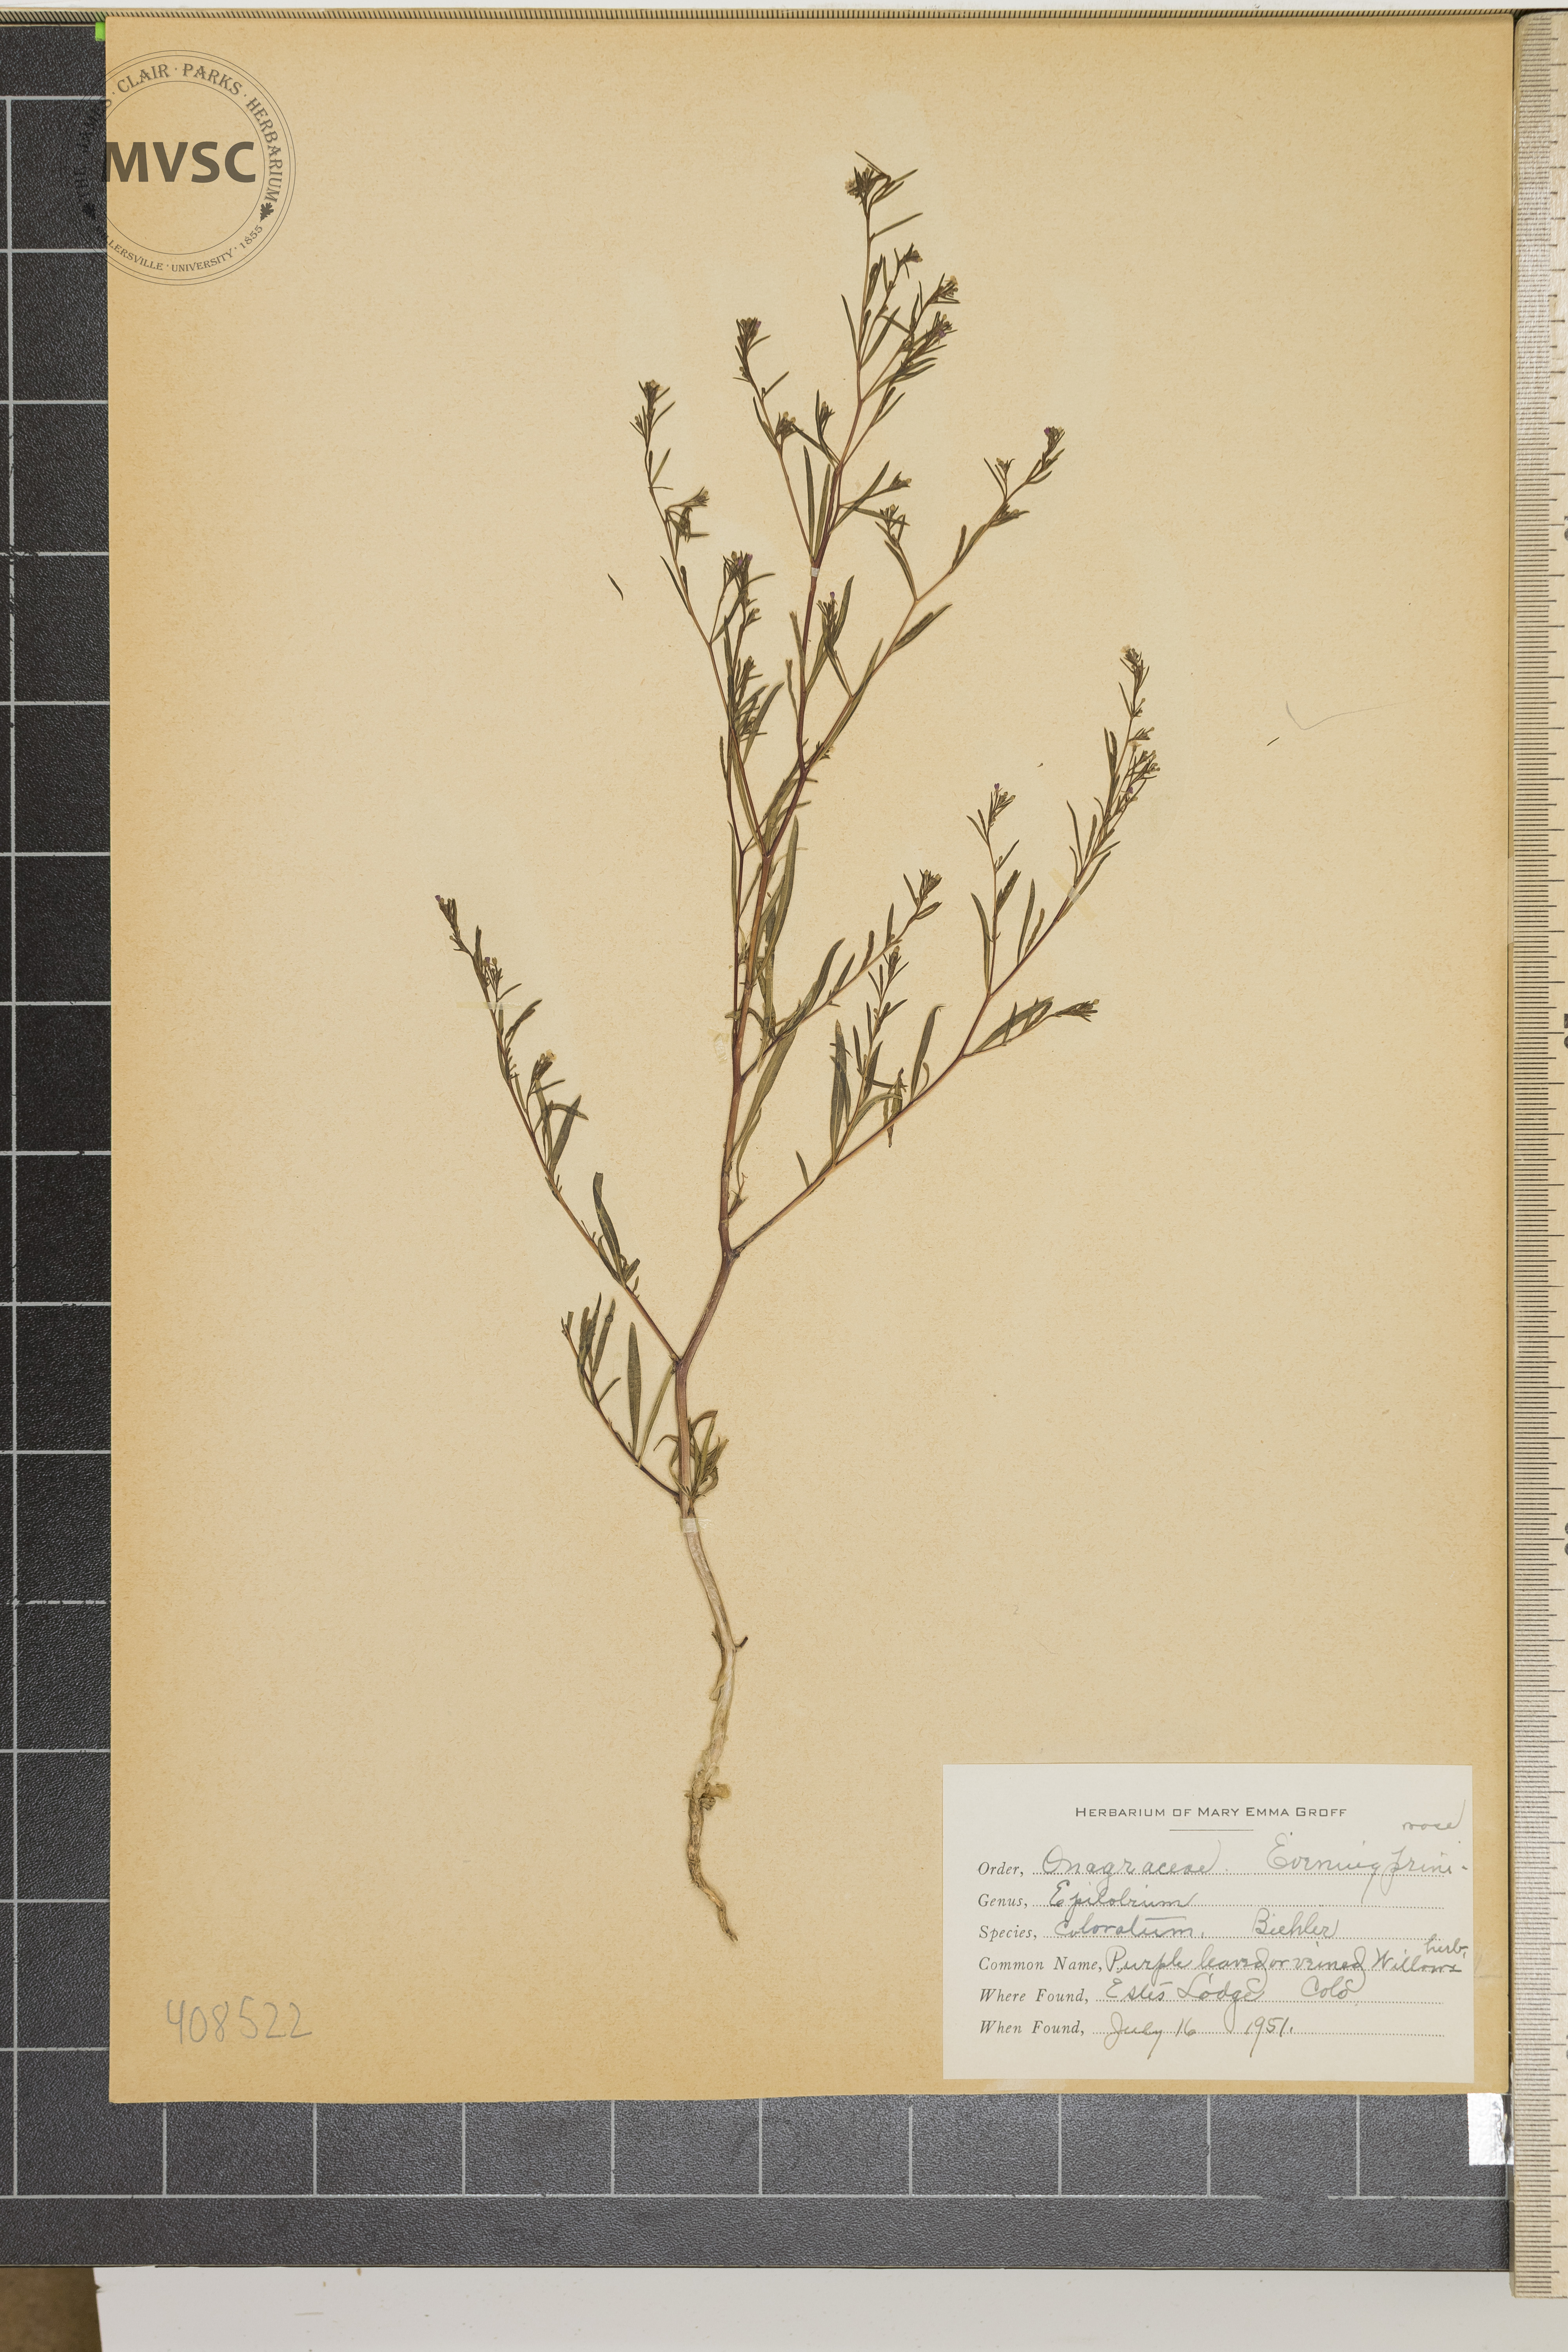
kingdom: Plantae
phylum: Tracheophyta
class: Magnoliopsida
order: Myrtales
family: Onagraceae
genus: Epilobium
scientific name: Epilobium coloratum
